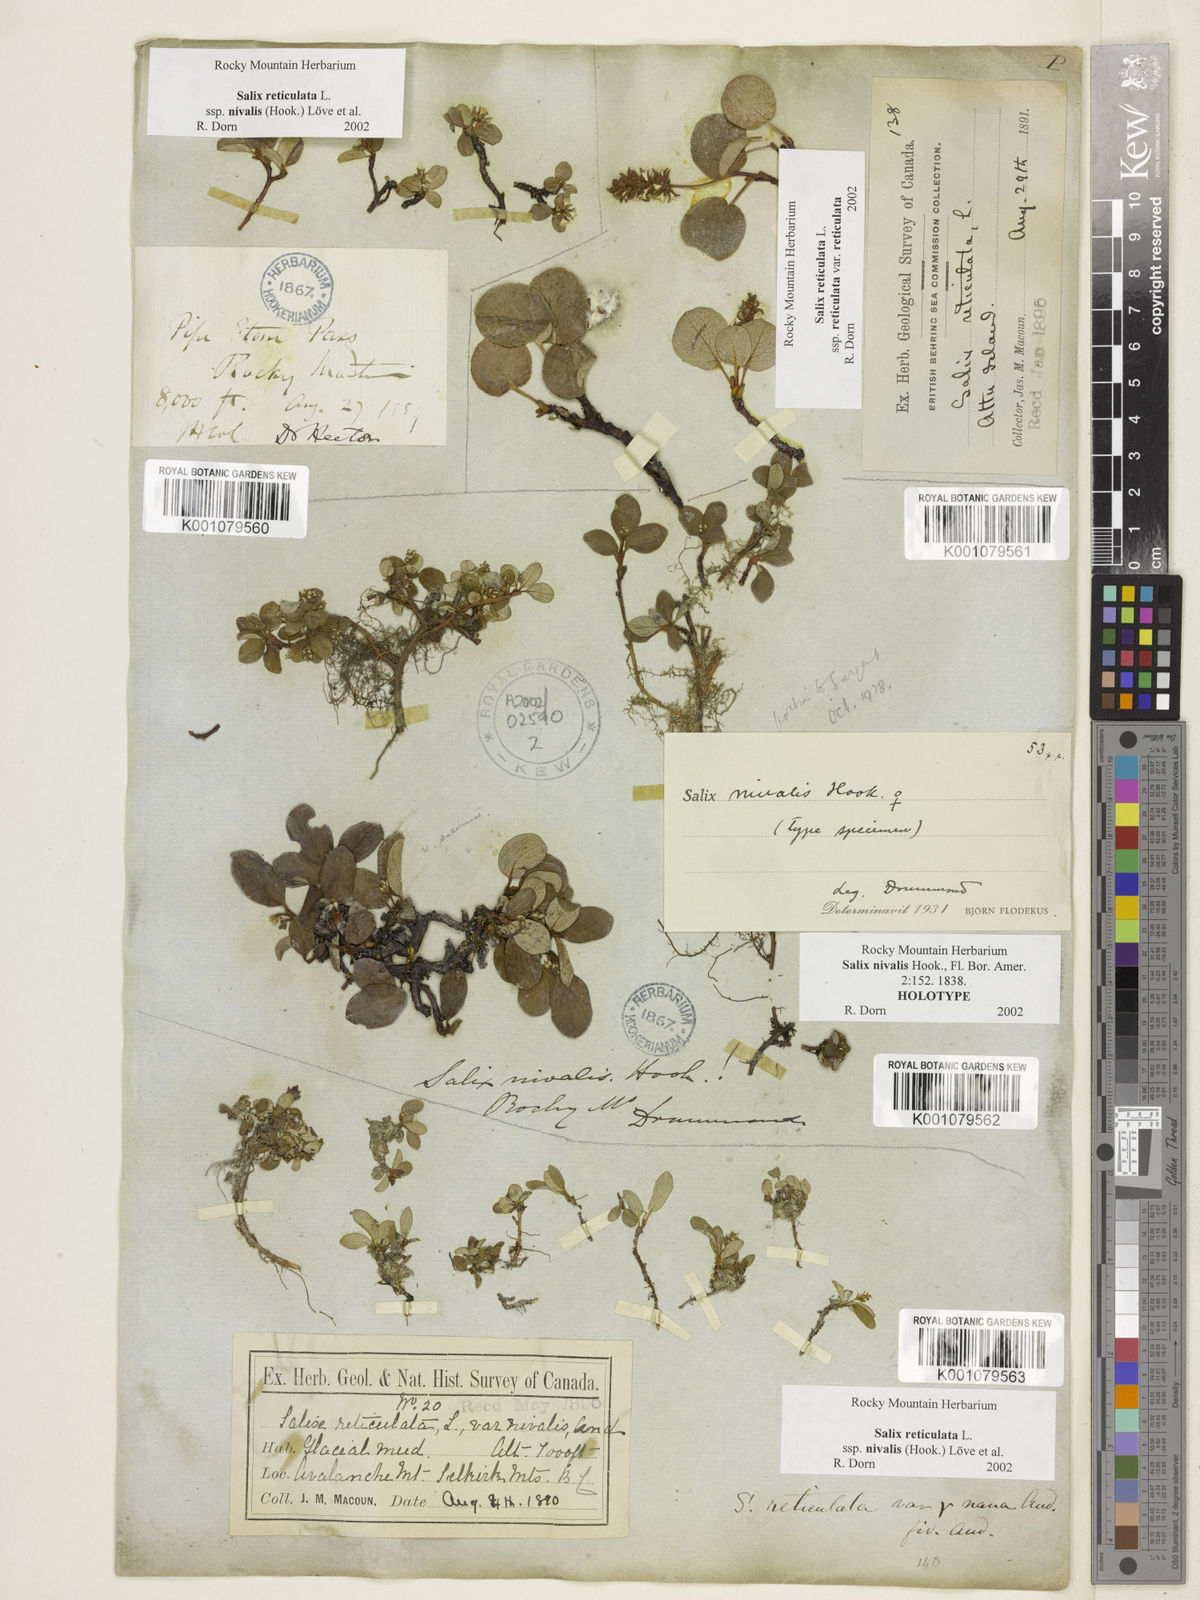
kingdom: Plantae
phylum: Tracheophyta
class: Magnoliopsida
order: Malpighiales
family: Salicaceae
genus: Salix
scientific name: Salix nivalis
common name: Dwarf snow willow
